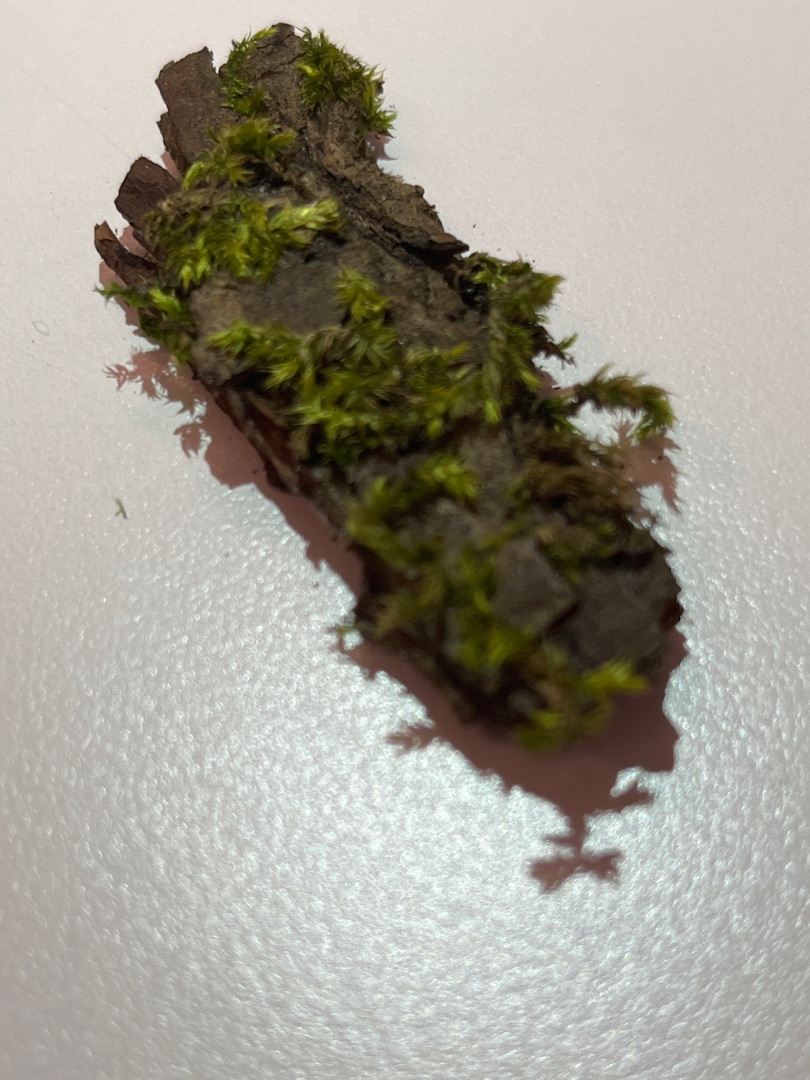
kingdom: Plantae
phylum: Bryophyta
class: Bryopsida
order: Hypnales
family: Brachytheciaceae
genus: Brachythecium
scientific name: Brachythecium
